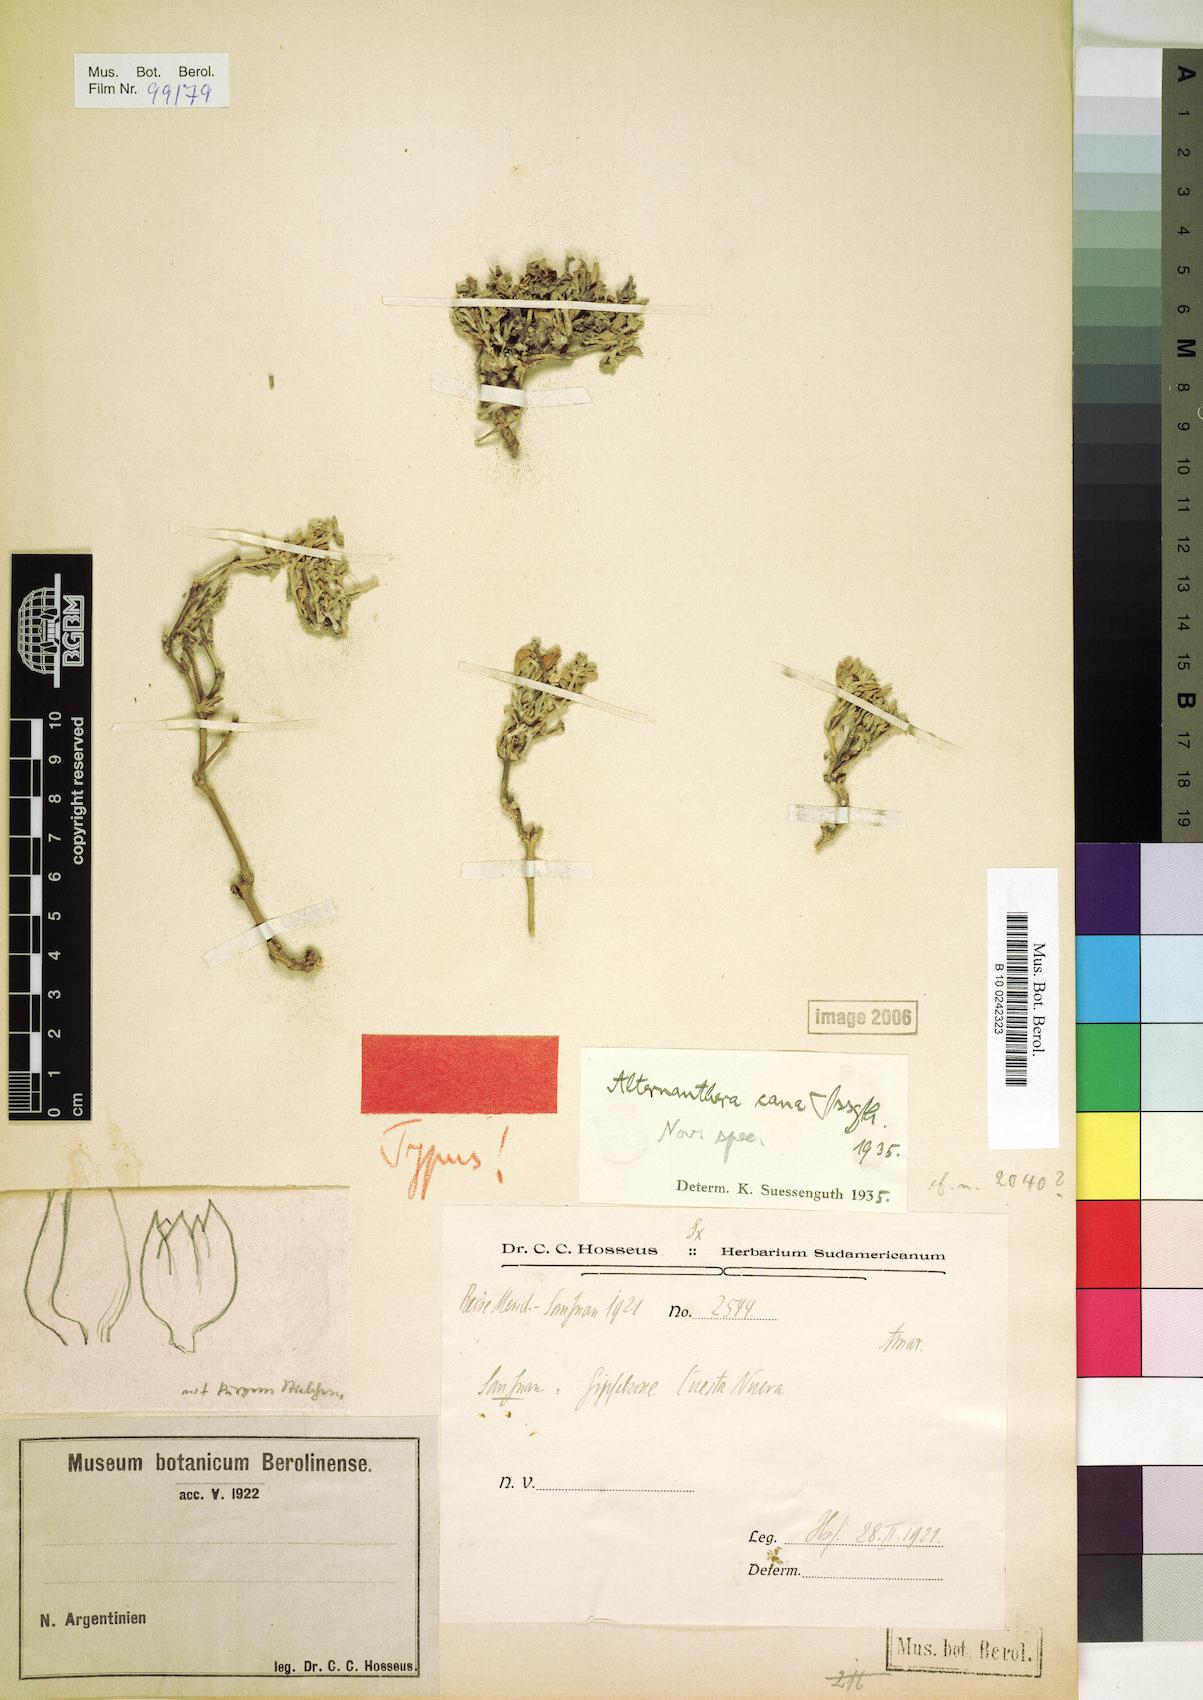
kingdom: Plantae
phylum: Tracheophyta
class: Magnoliopsida
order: Caryophyllales
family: Amaranthaceae
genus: Alternanthera
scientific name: Alternanthera cana
